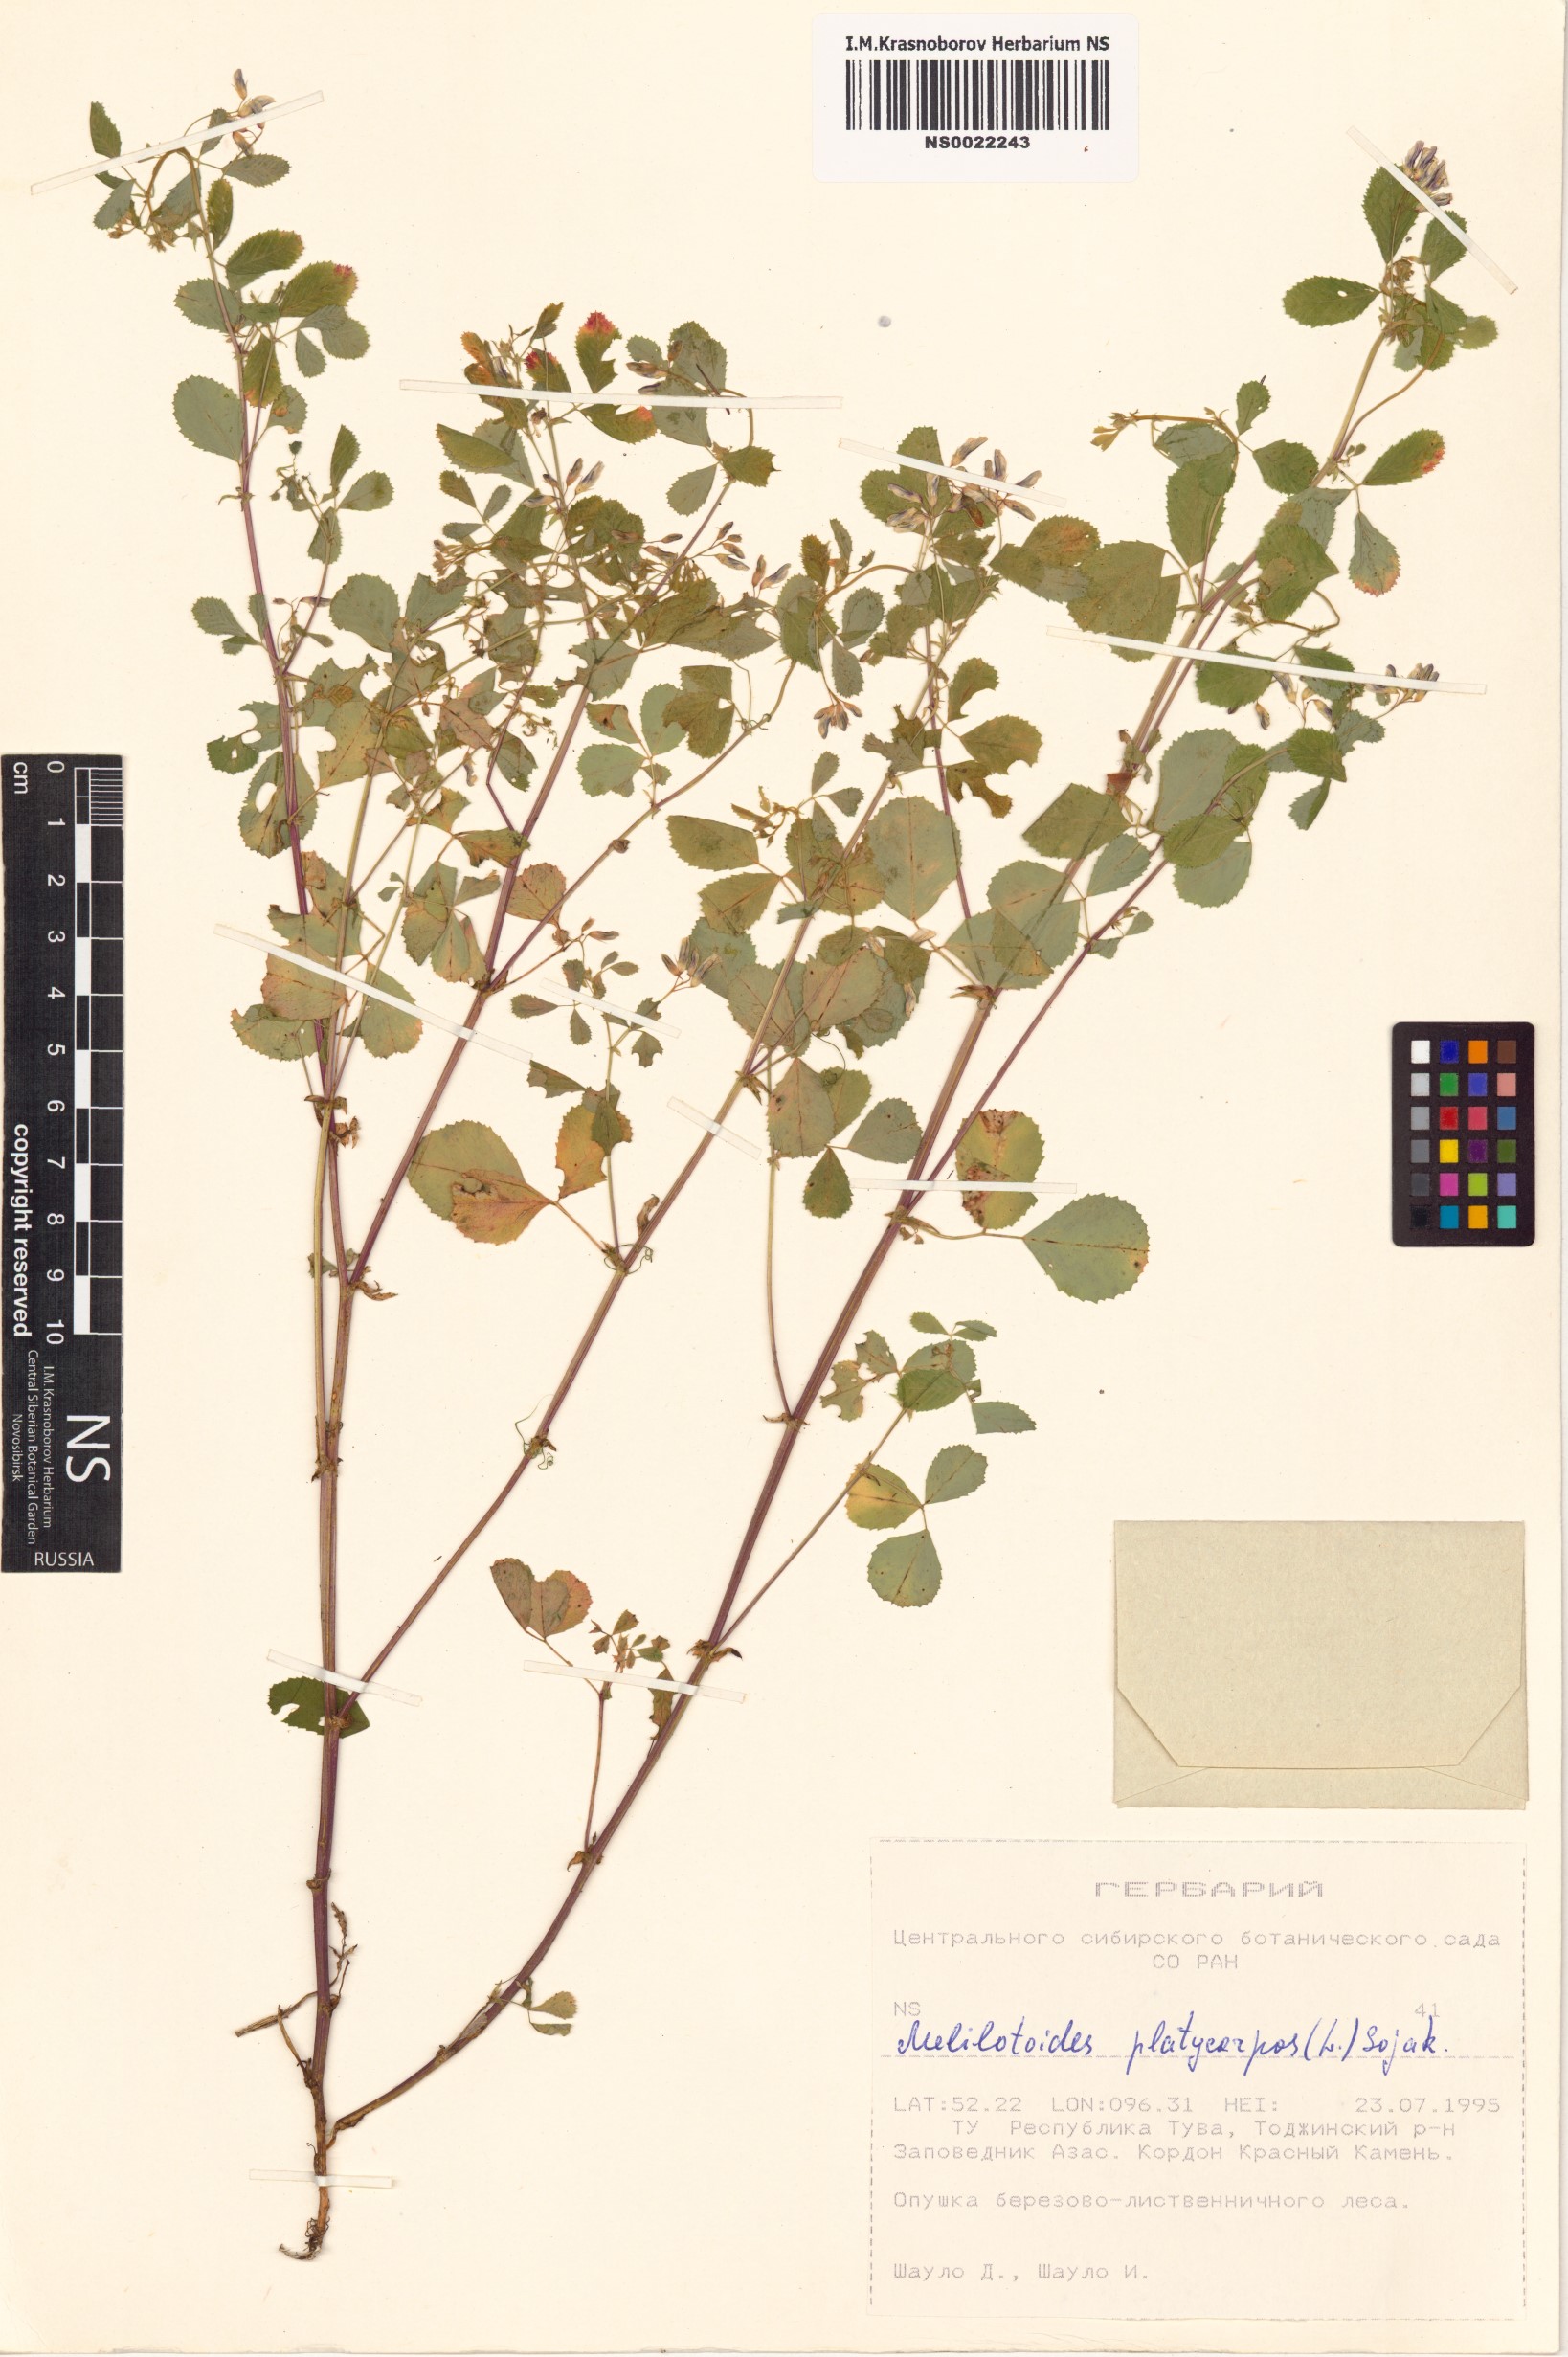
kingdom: Plantae
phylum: Tracheophyta
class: Magnoliopsida
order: Fabales
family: Fabaceae
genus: Medicago
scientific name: Medicago platycarpos
